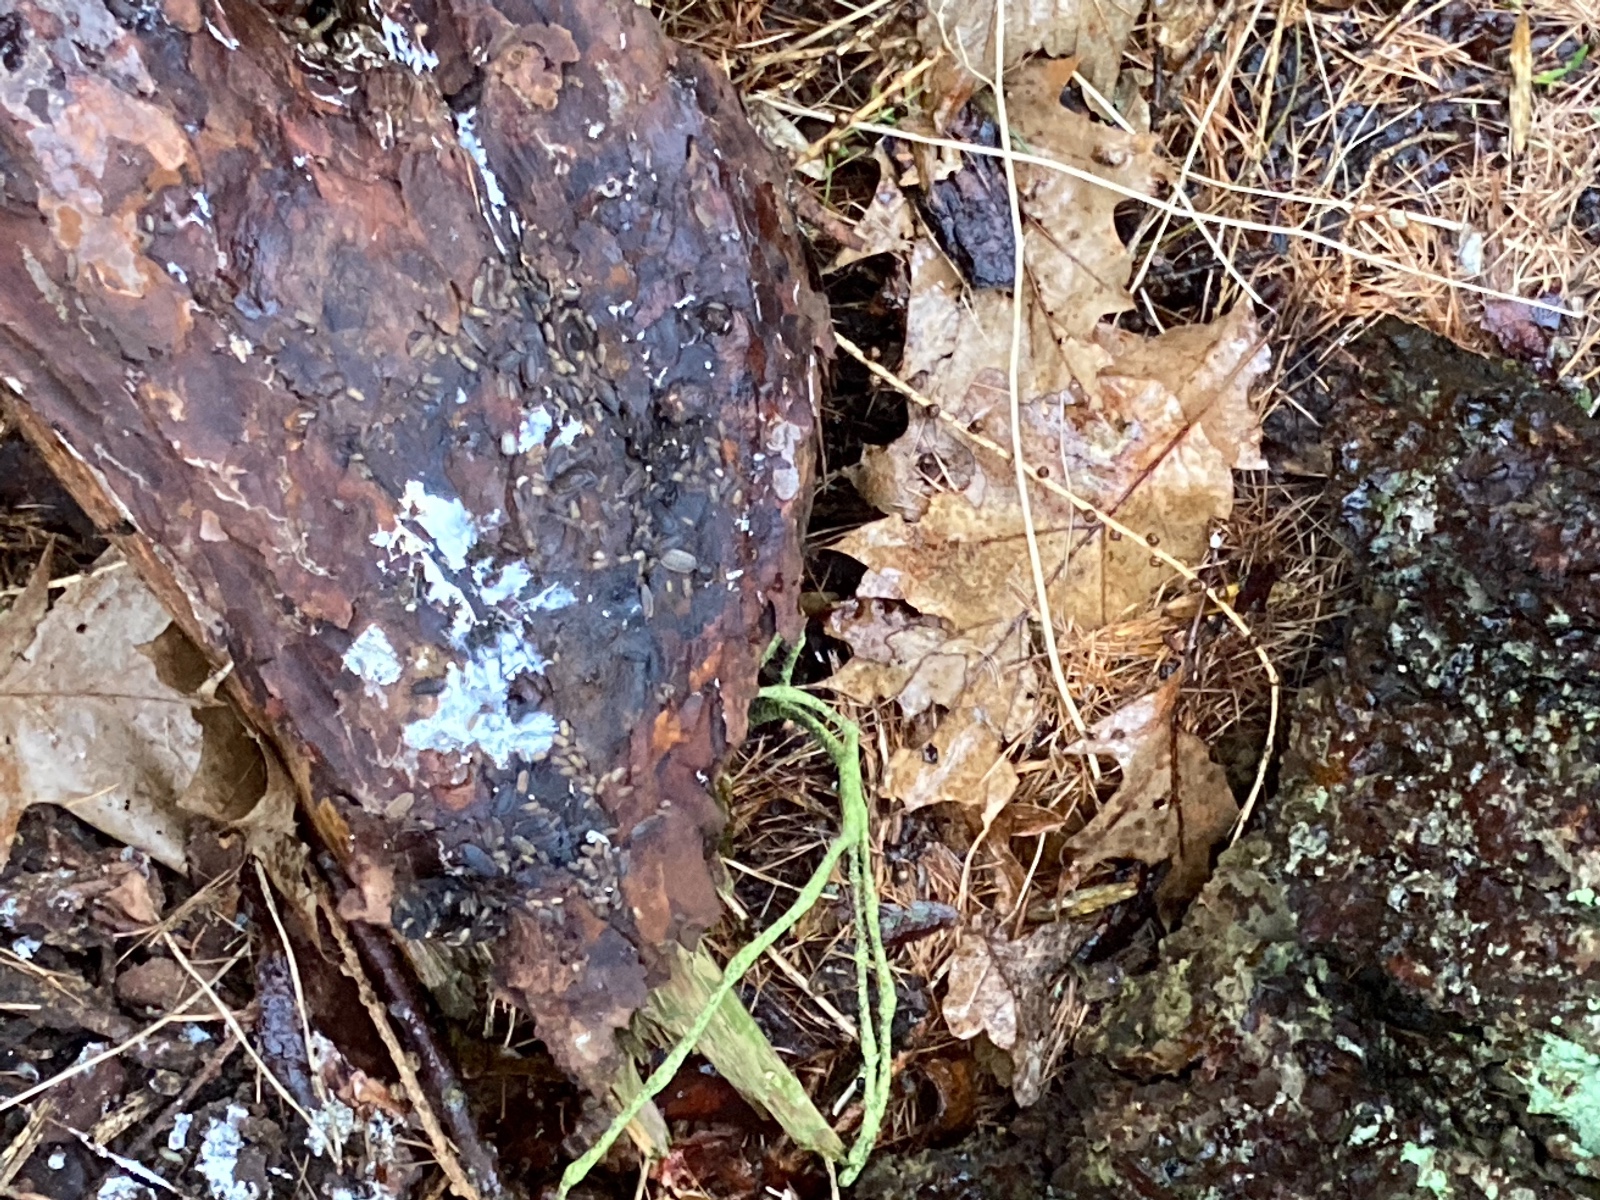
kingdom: Fungi
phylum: Basidiomycota
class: Agaricomycetes
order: Atheliales
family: Atheliaceae
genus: Leptosporomyces
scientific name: Leptosporomyces fuscostratus
